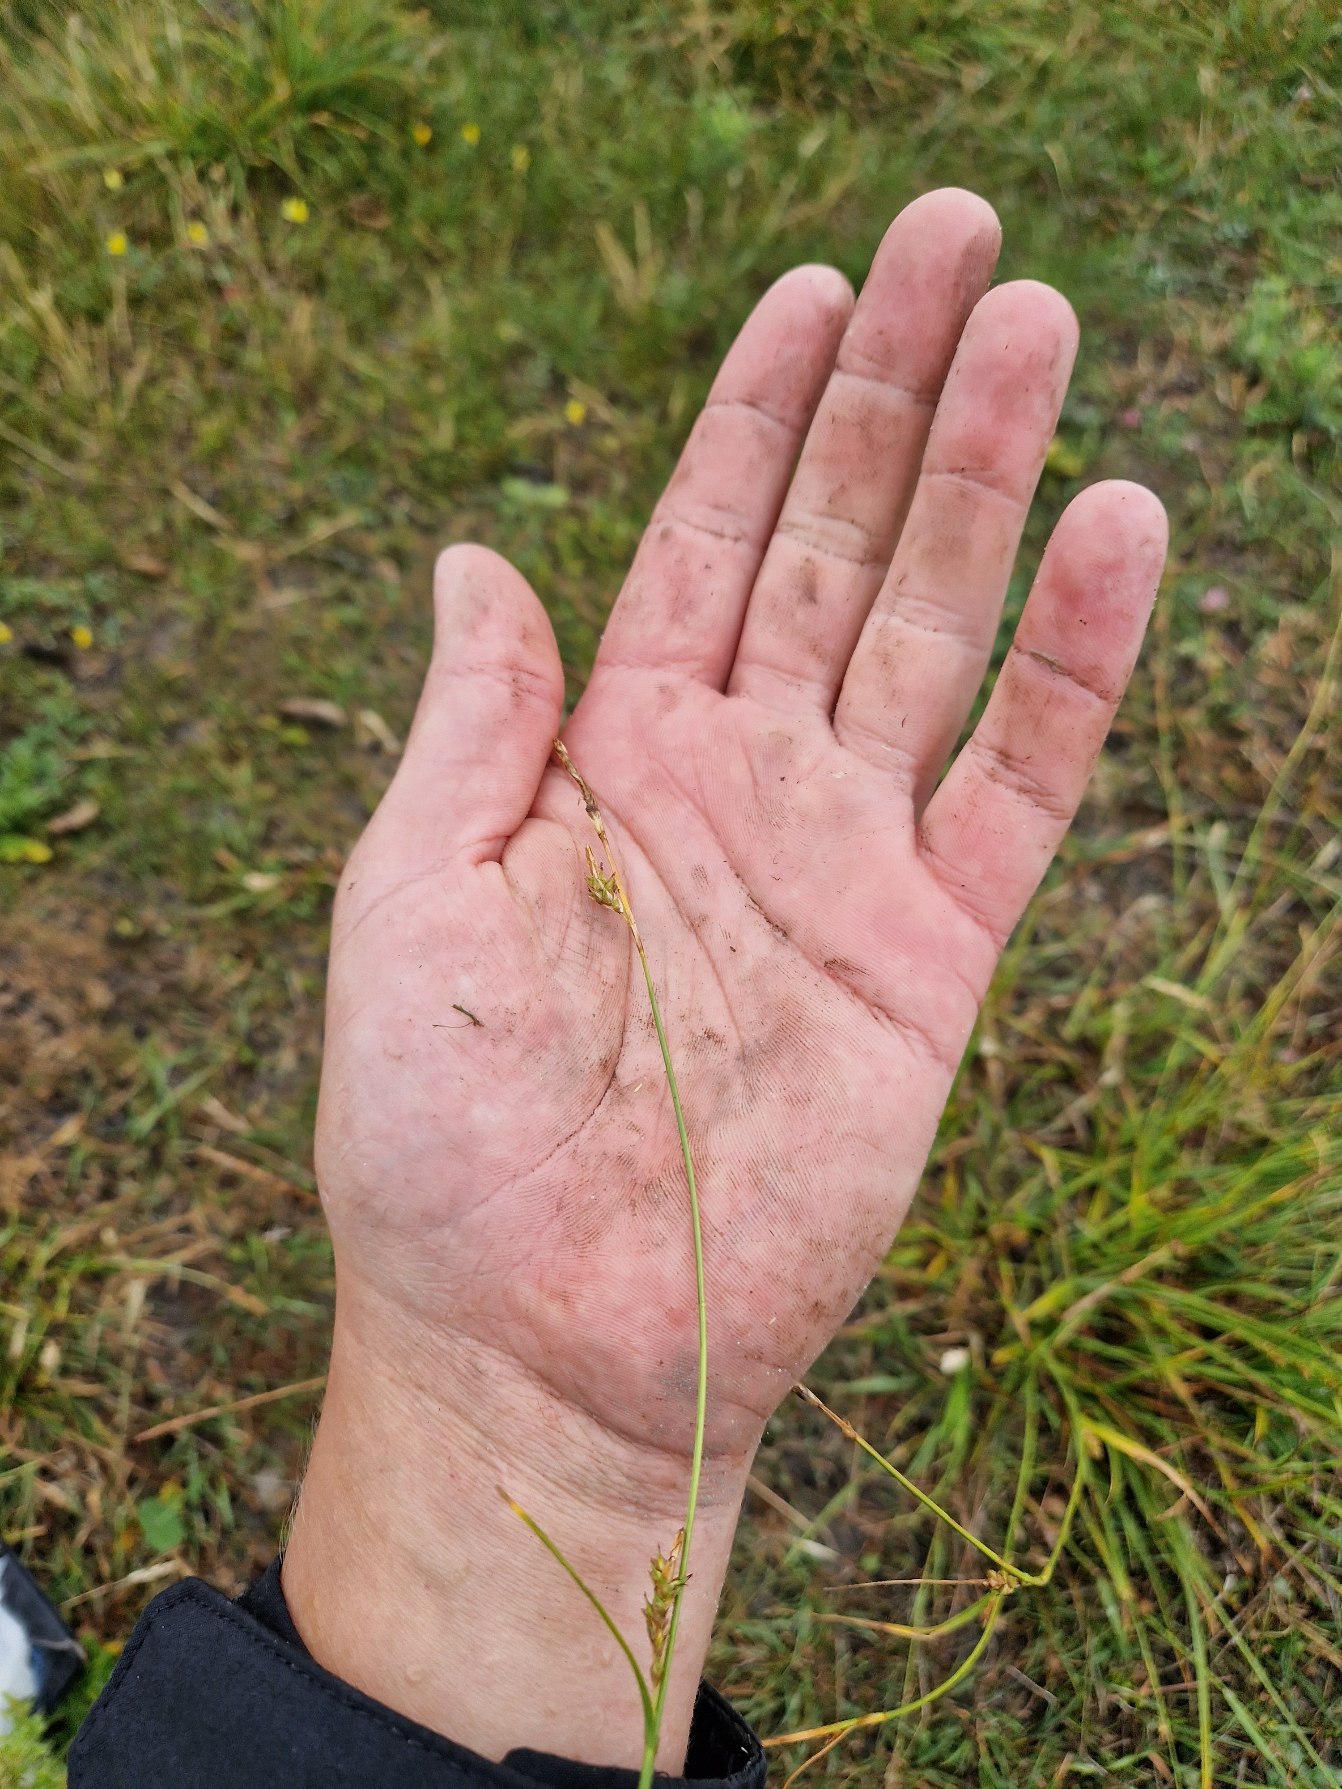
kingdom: Plantae
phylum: Tracheophyta
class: Liliopsida
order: Poales
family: Cyperaceae
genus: Carex
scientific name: Carex distans
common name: Fjernakset star
